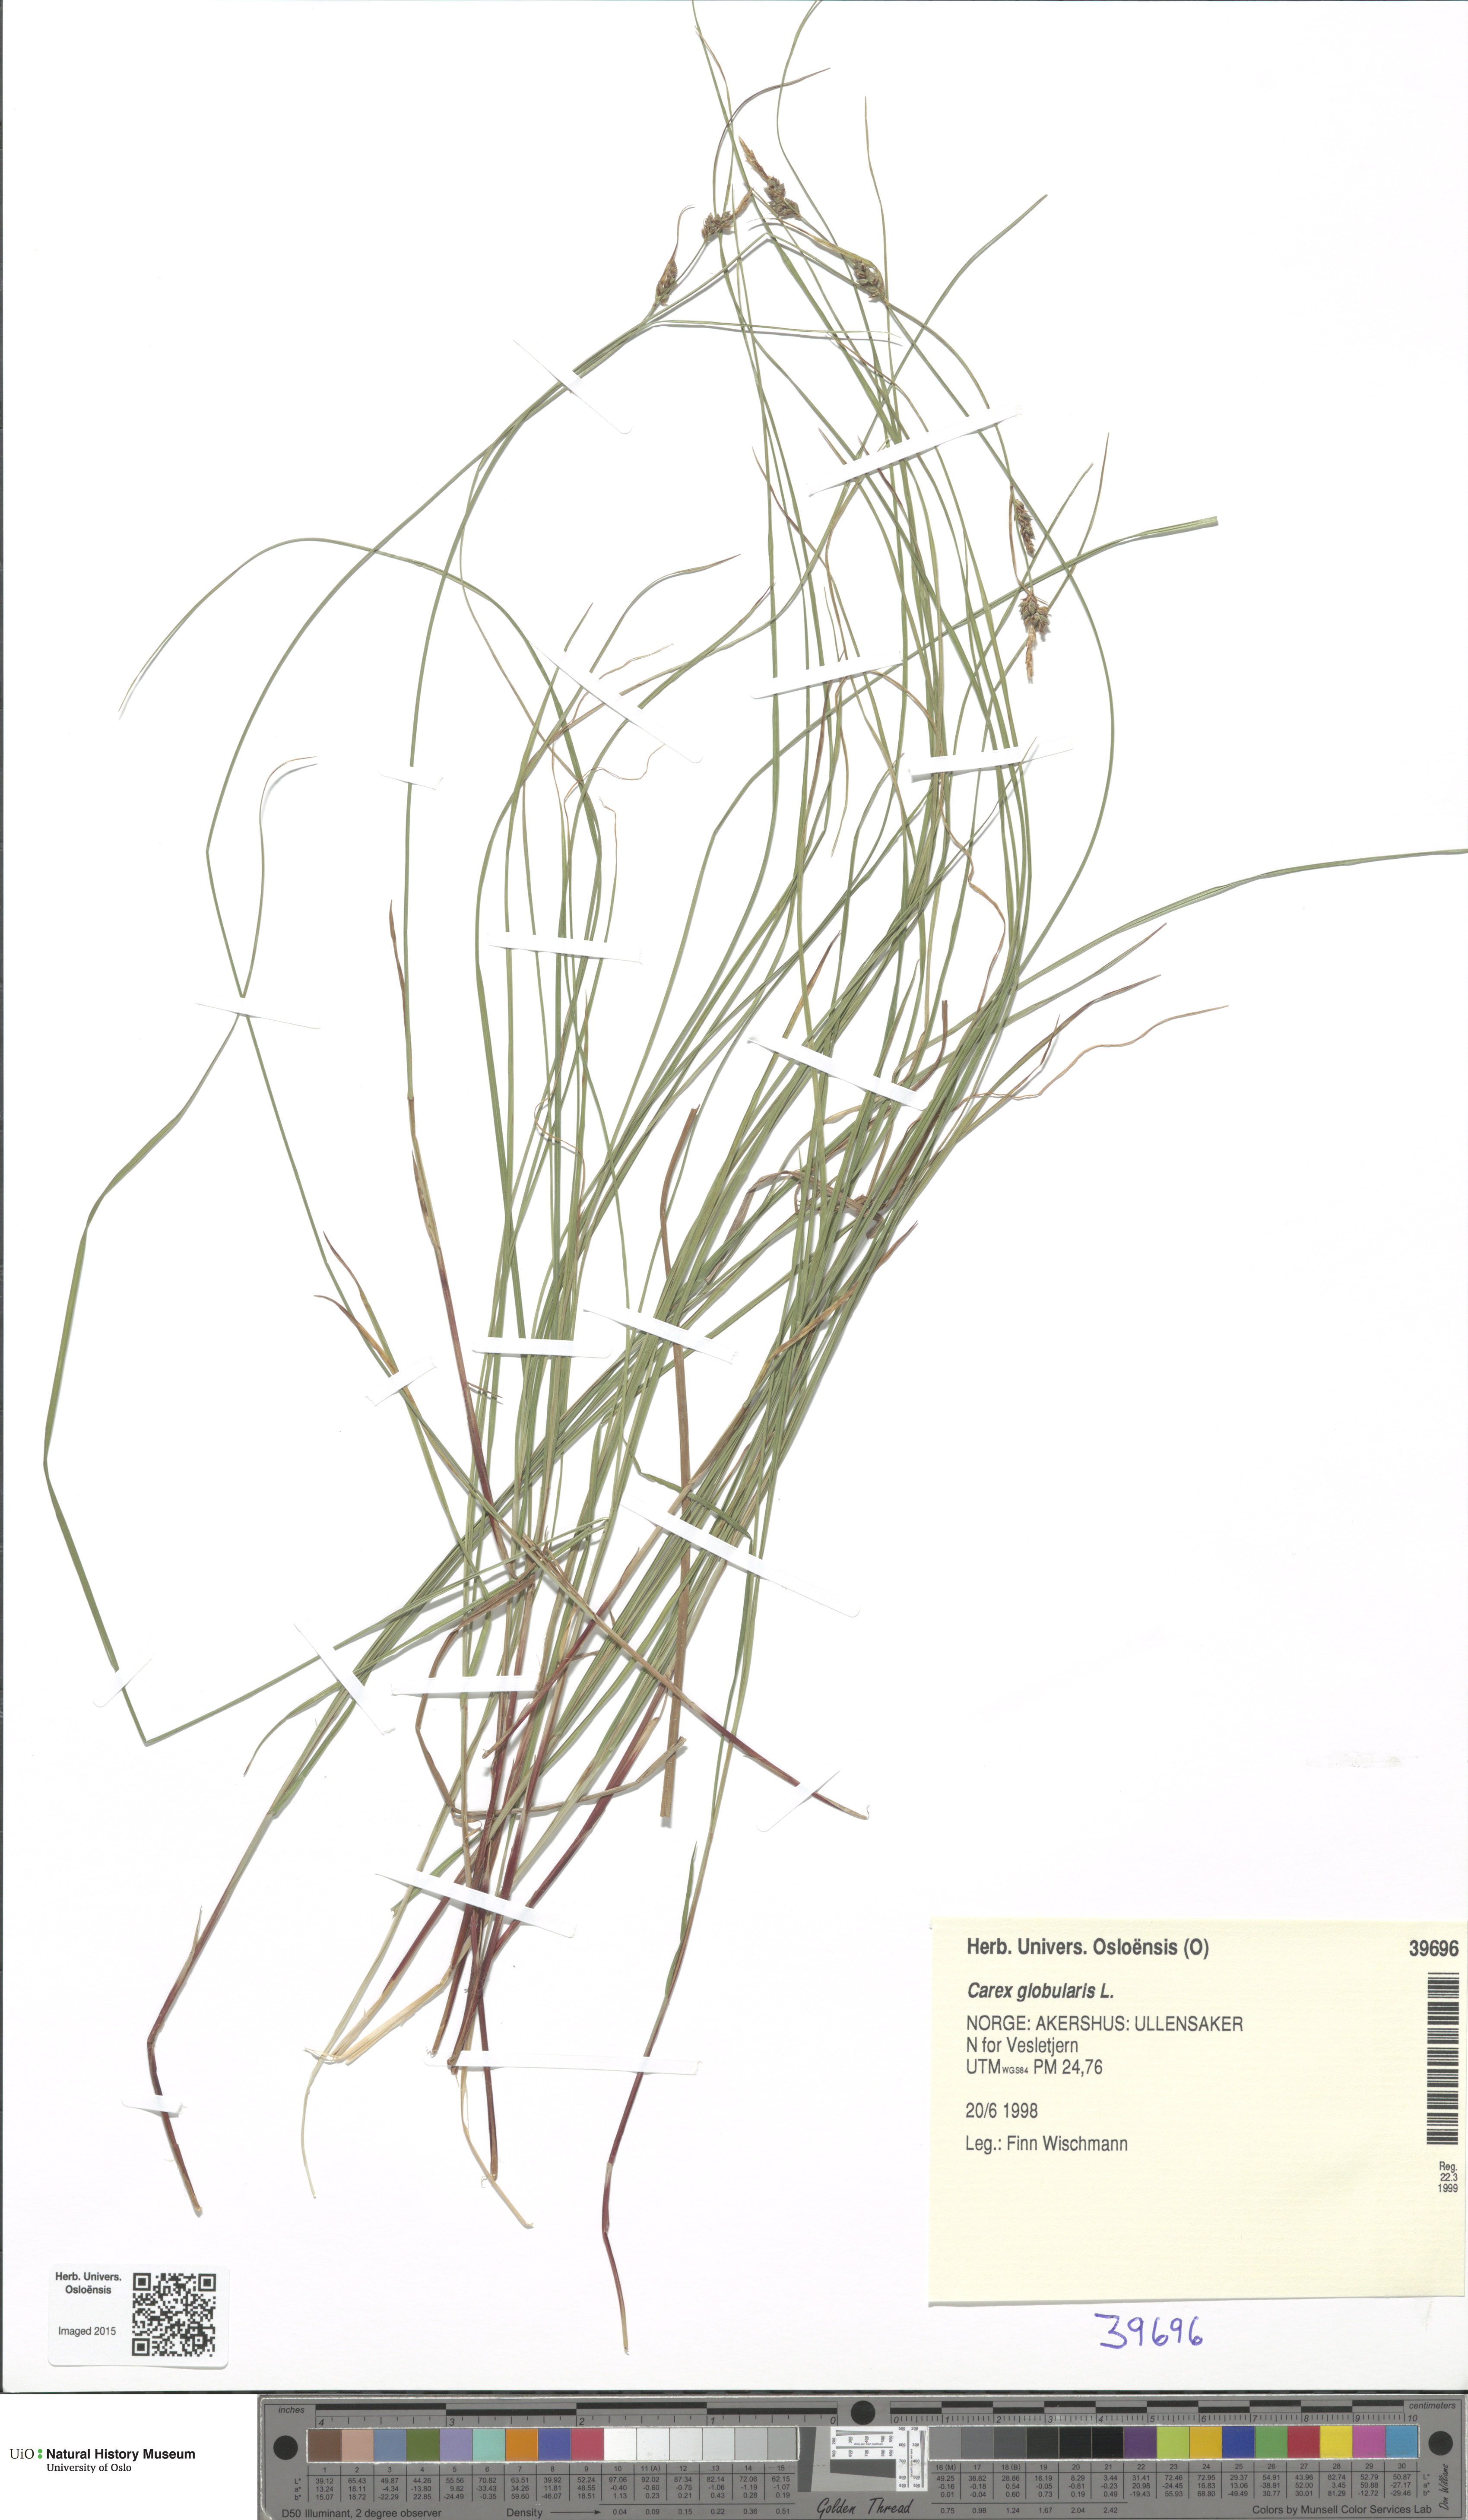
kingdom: Plantae
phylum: Tracheophyta
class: Liliopsida
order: Poales
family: Cyperaceae
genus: Carex
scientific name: Carex globularis
